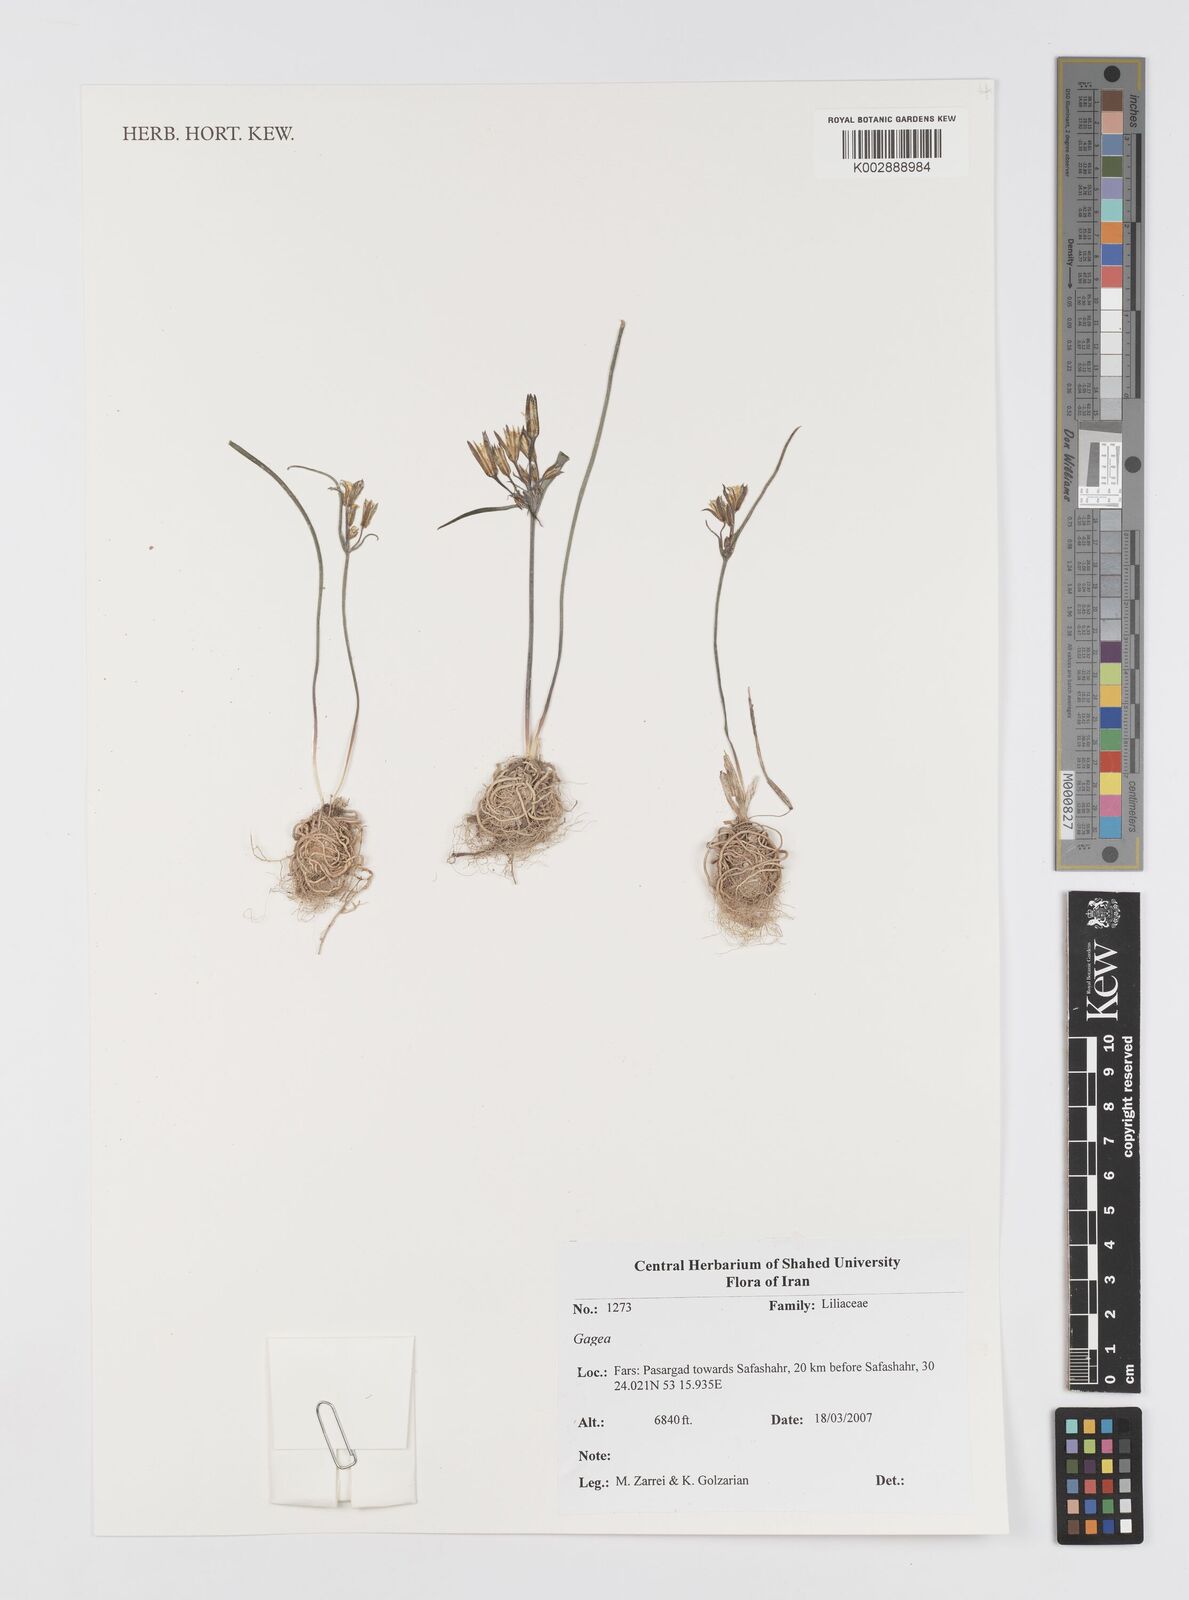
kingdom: Plantae
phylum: Tracheophyta
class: Liliopsida
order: Liliales
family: Liliaceae
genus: Gagea
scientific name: Gagea
